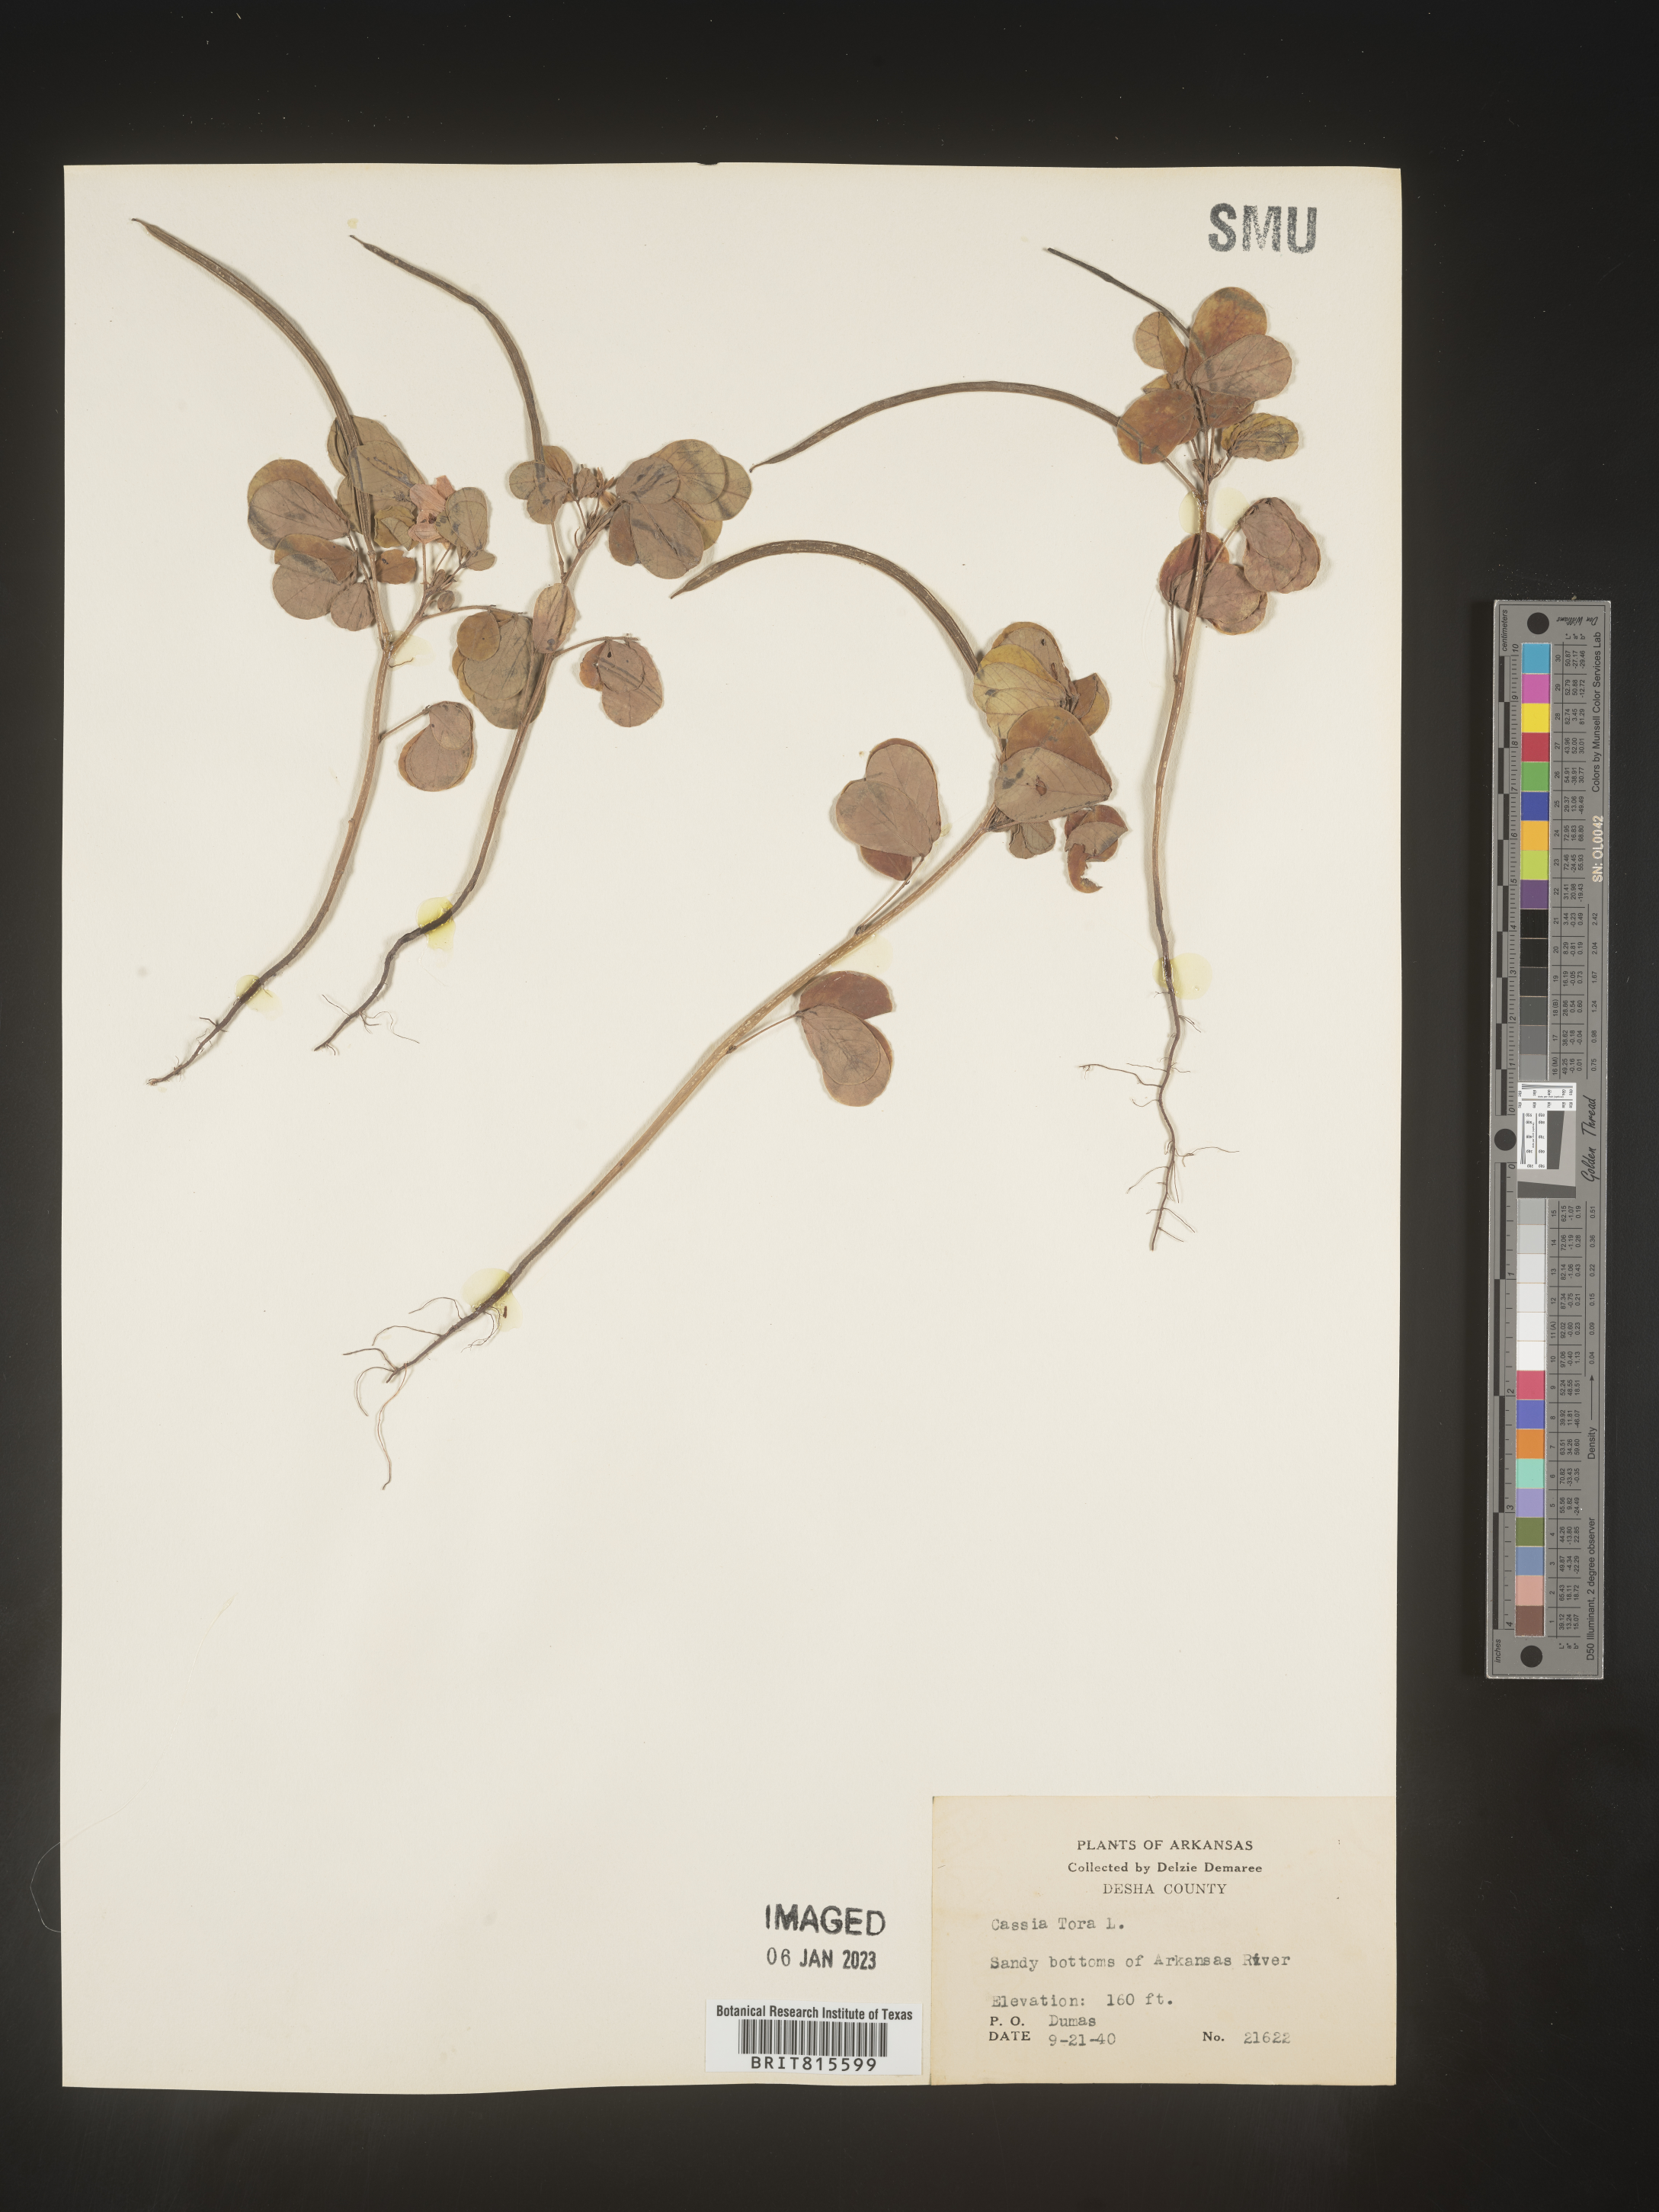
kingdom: Plantae
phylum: Tracheophyta
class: Magnoliopsida
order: Fabales
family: Fabaceae
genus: Senna
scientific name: Senna tora
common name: Sickle senna
